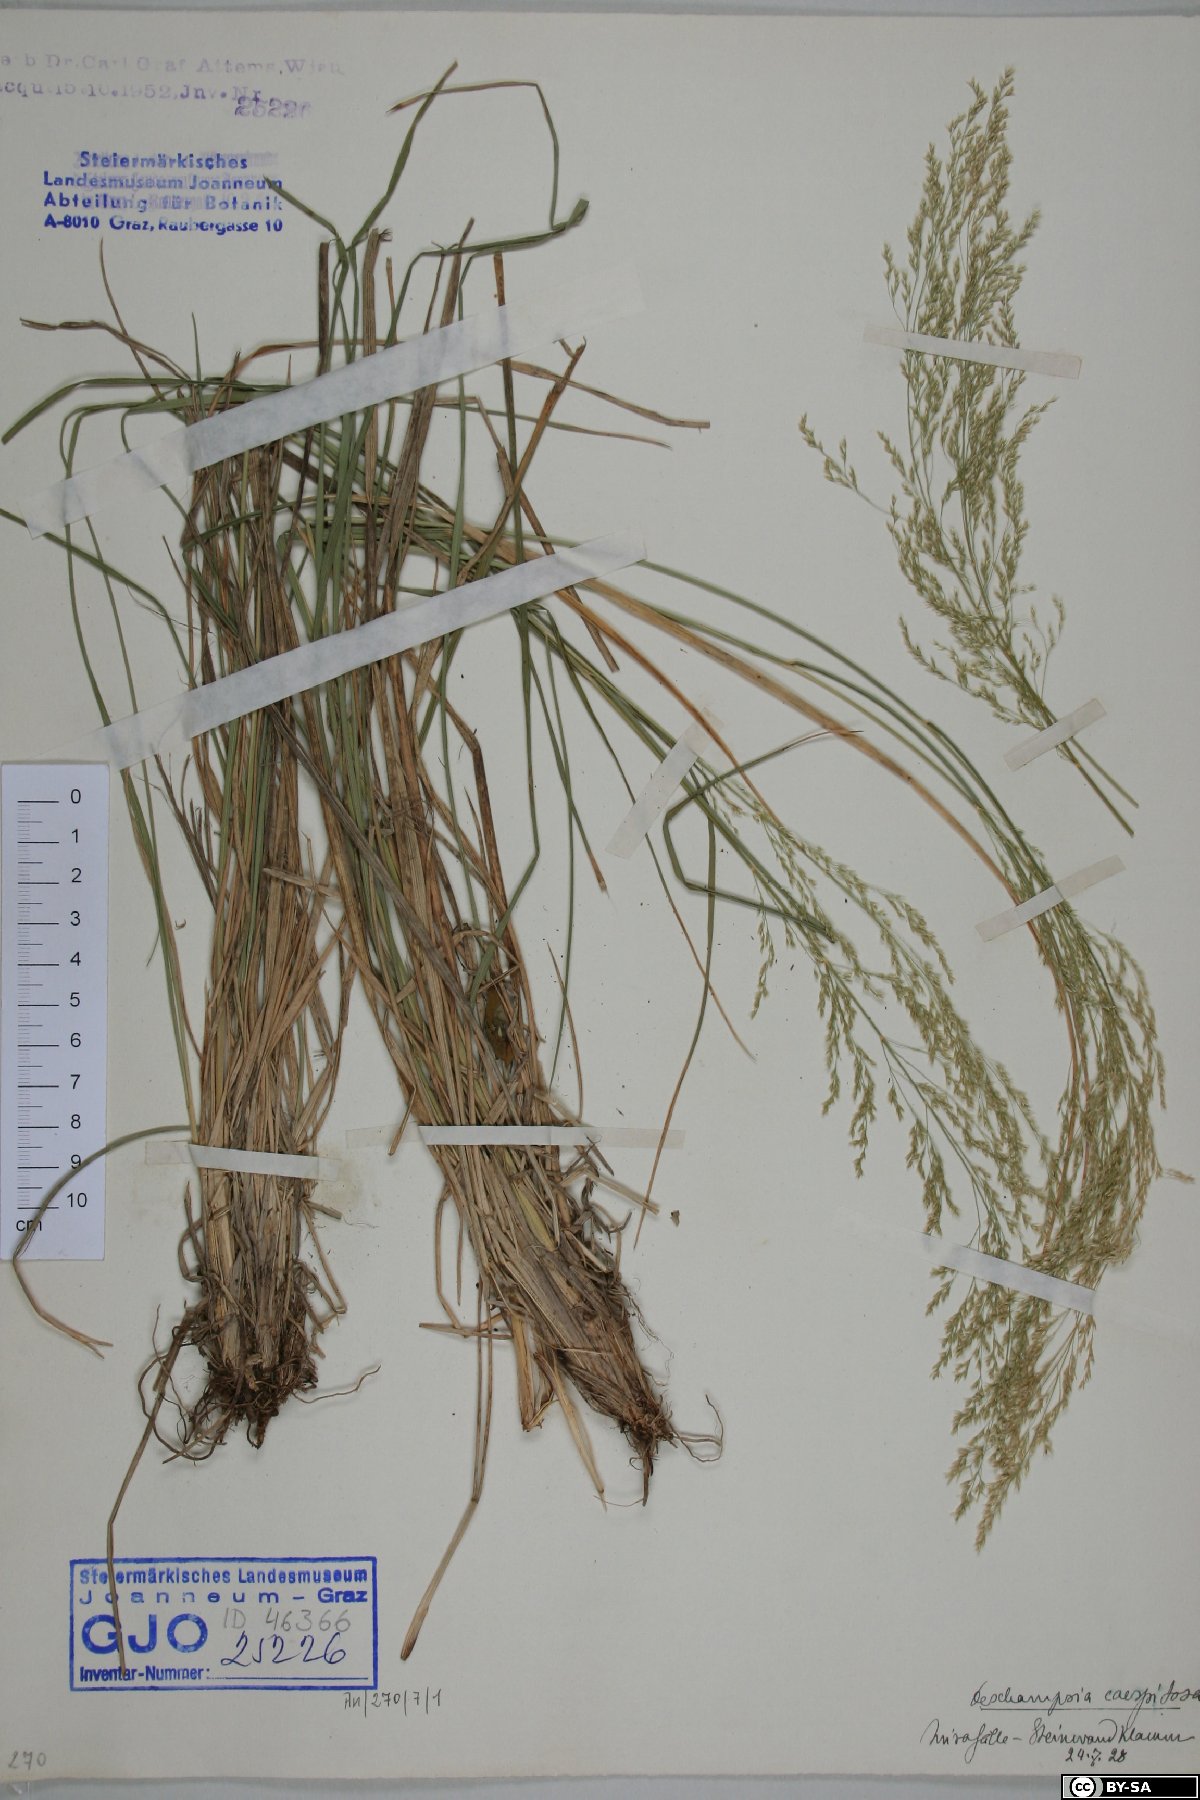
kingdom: Plantae
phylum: Tracheophyta
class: Liliopsida
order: Poales
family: Poaceae
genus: Deschampsia
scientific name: Deschampsia cespitosa
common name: Tufted hair-grass
